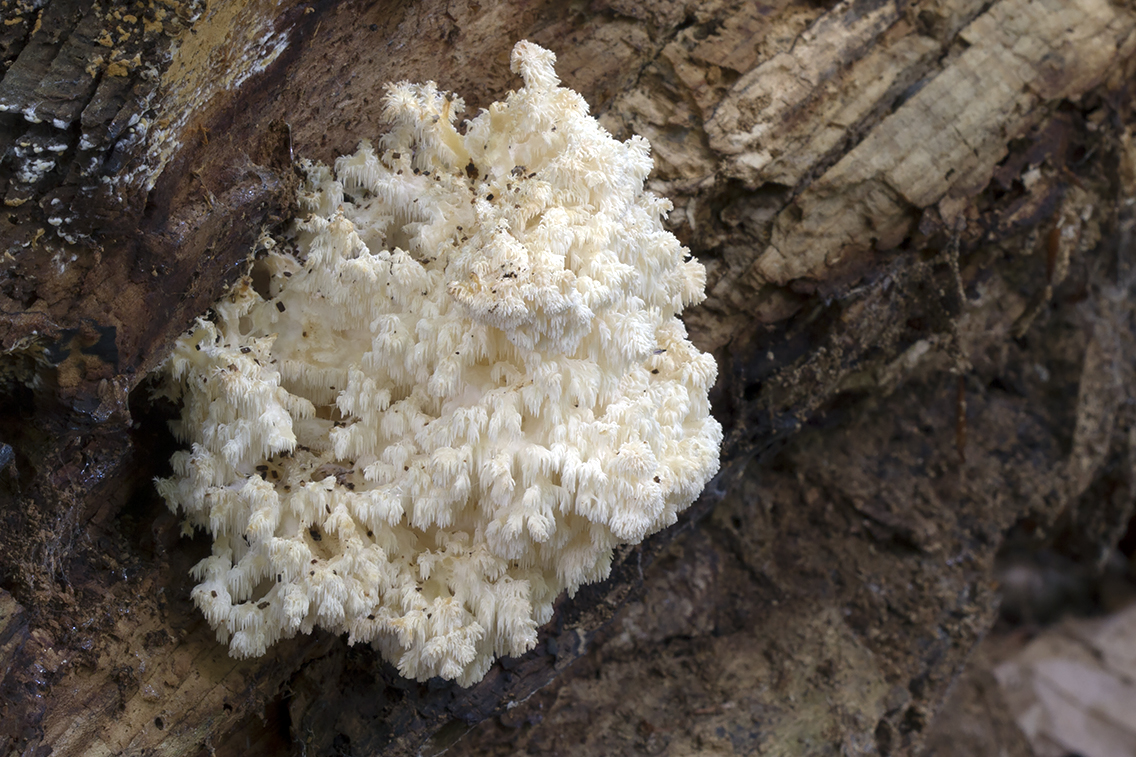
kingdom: Fungi
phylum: Basidiomycota
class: Agaricomycetes
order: Russulales
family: Hericiaceae
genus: Hericium
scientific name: Hericium coralloides
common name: koralpigsvamp
